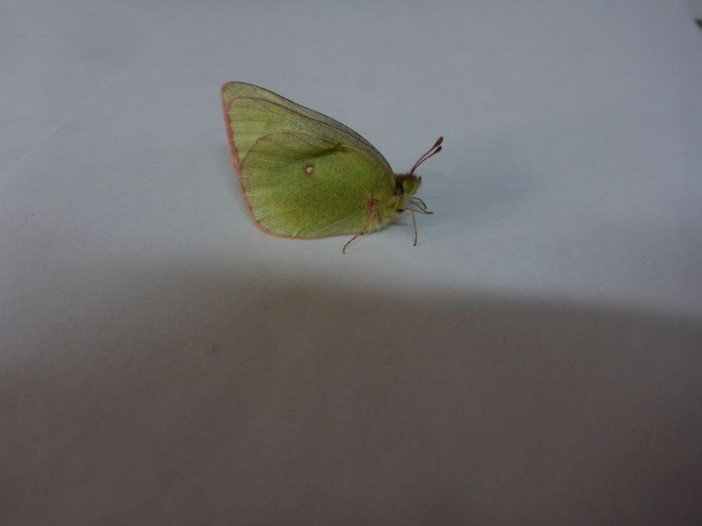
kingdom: Animalia
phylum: Arthropoda
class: Insecta
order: Lepidoptera
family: Pieridae
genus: Colias
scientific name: Colias christina
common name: Christina Sulphur
